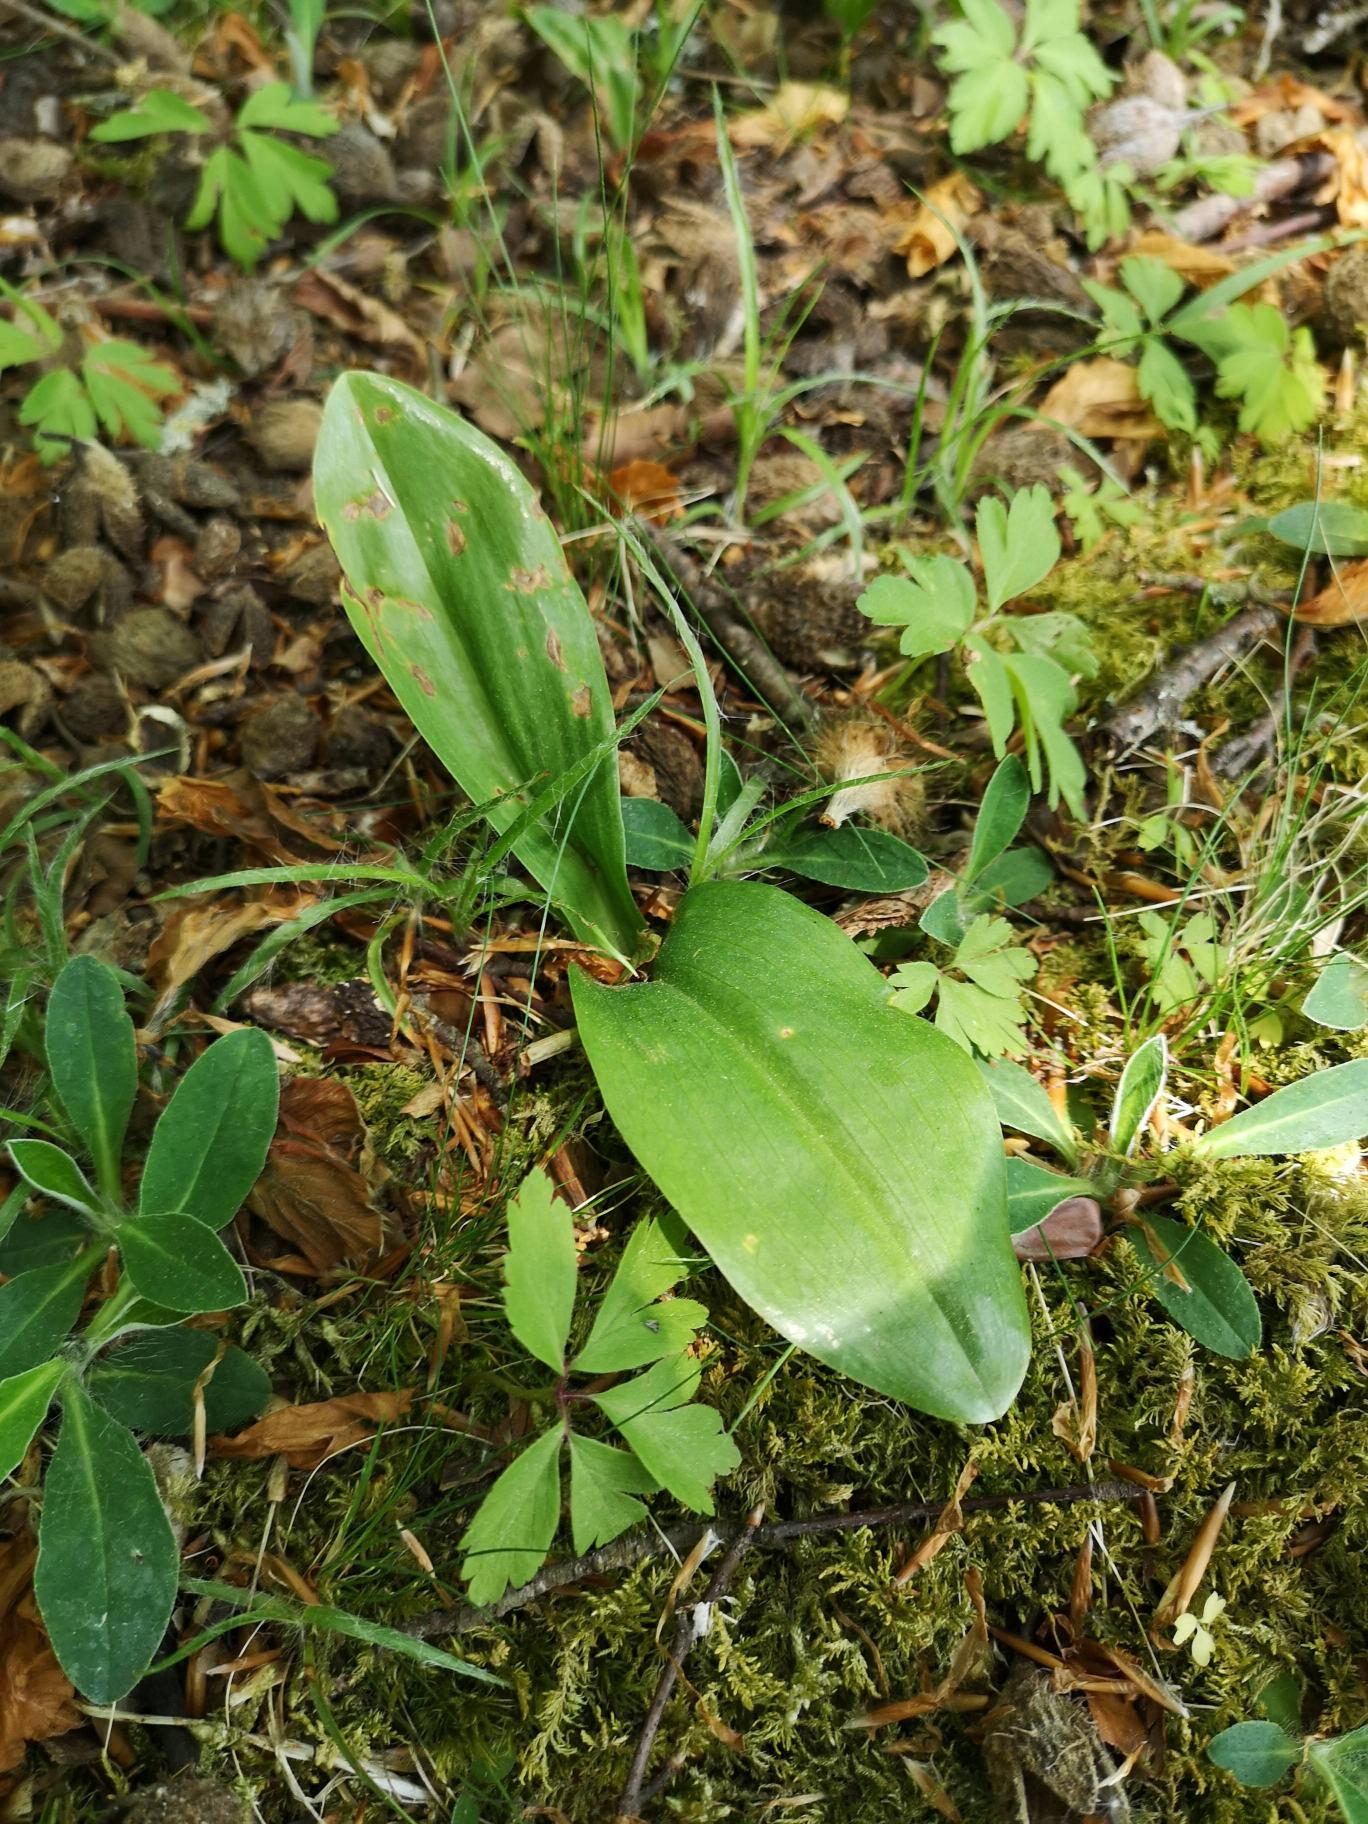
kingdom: Plantae
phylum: Tracheophyta
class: Liliopsida
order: Asparagales
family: Orchidaceae
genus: Platanthera
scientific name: Platanthera
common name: Gøgeliljeslægten
